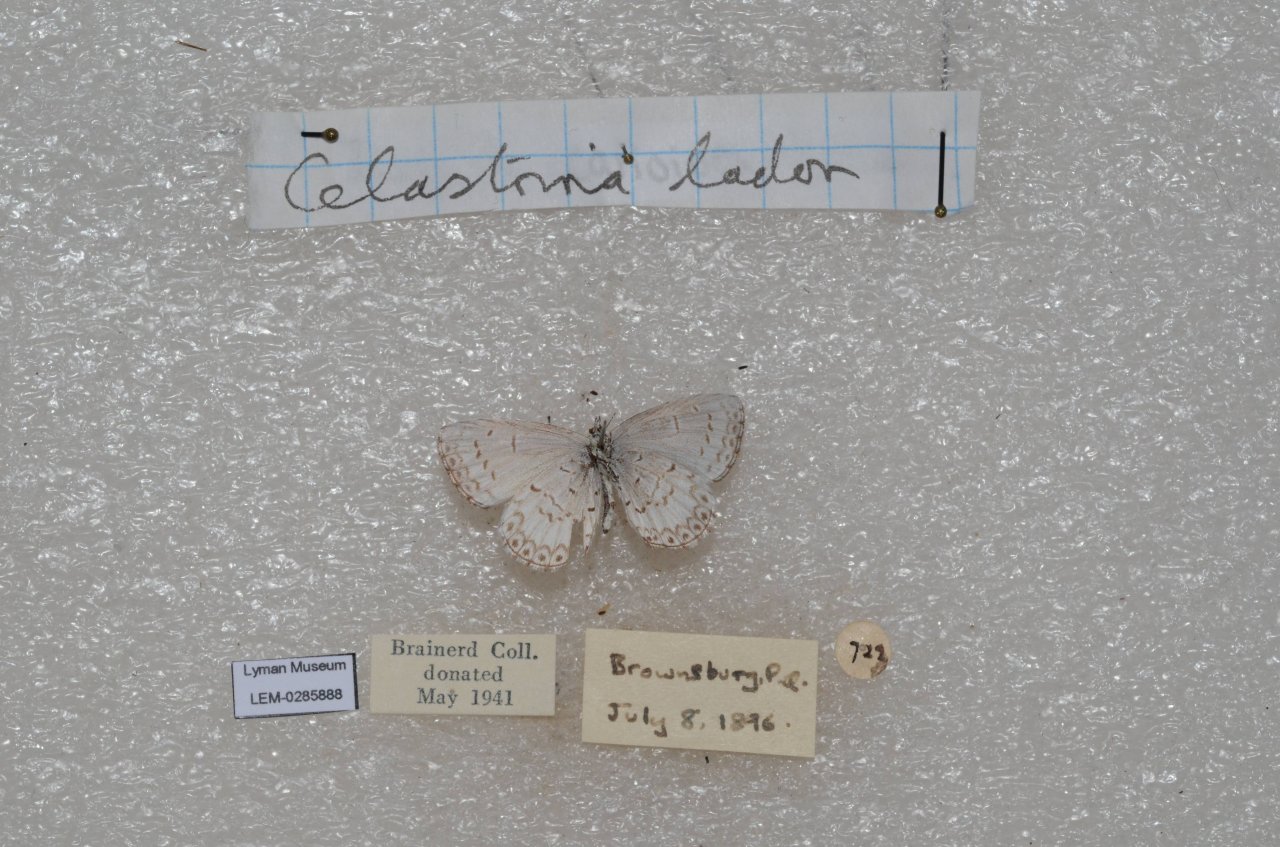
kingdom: Animalia
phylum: Arthropoda
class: Insecta
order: Lepidoptera
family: Lycaenidae
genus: Celastrina
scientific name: Celastrina lucia
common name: Northern Spring Azure
